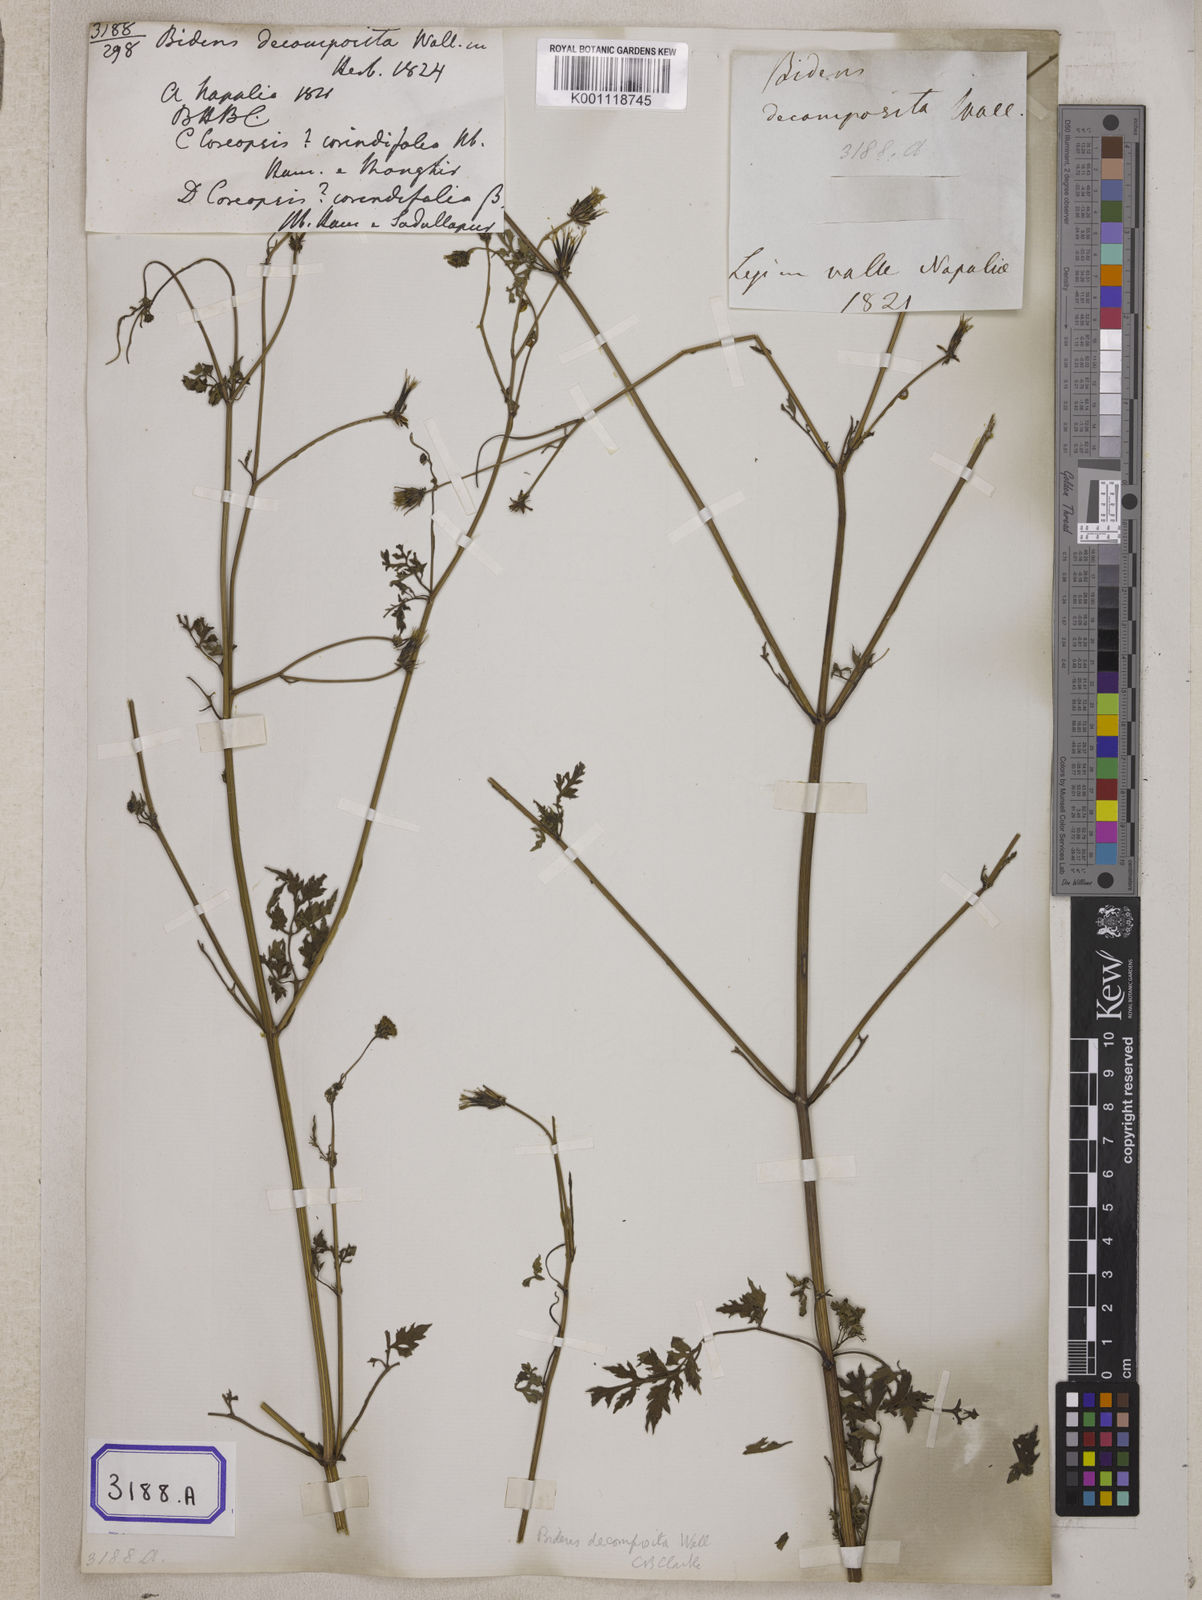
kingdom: Plantae
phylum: Tracheophyta
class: Magnoliopsida
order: Asterales
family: Asteraceae
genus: Bidens
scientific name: Bidens bipinnata
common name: Spanish-needles
